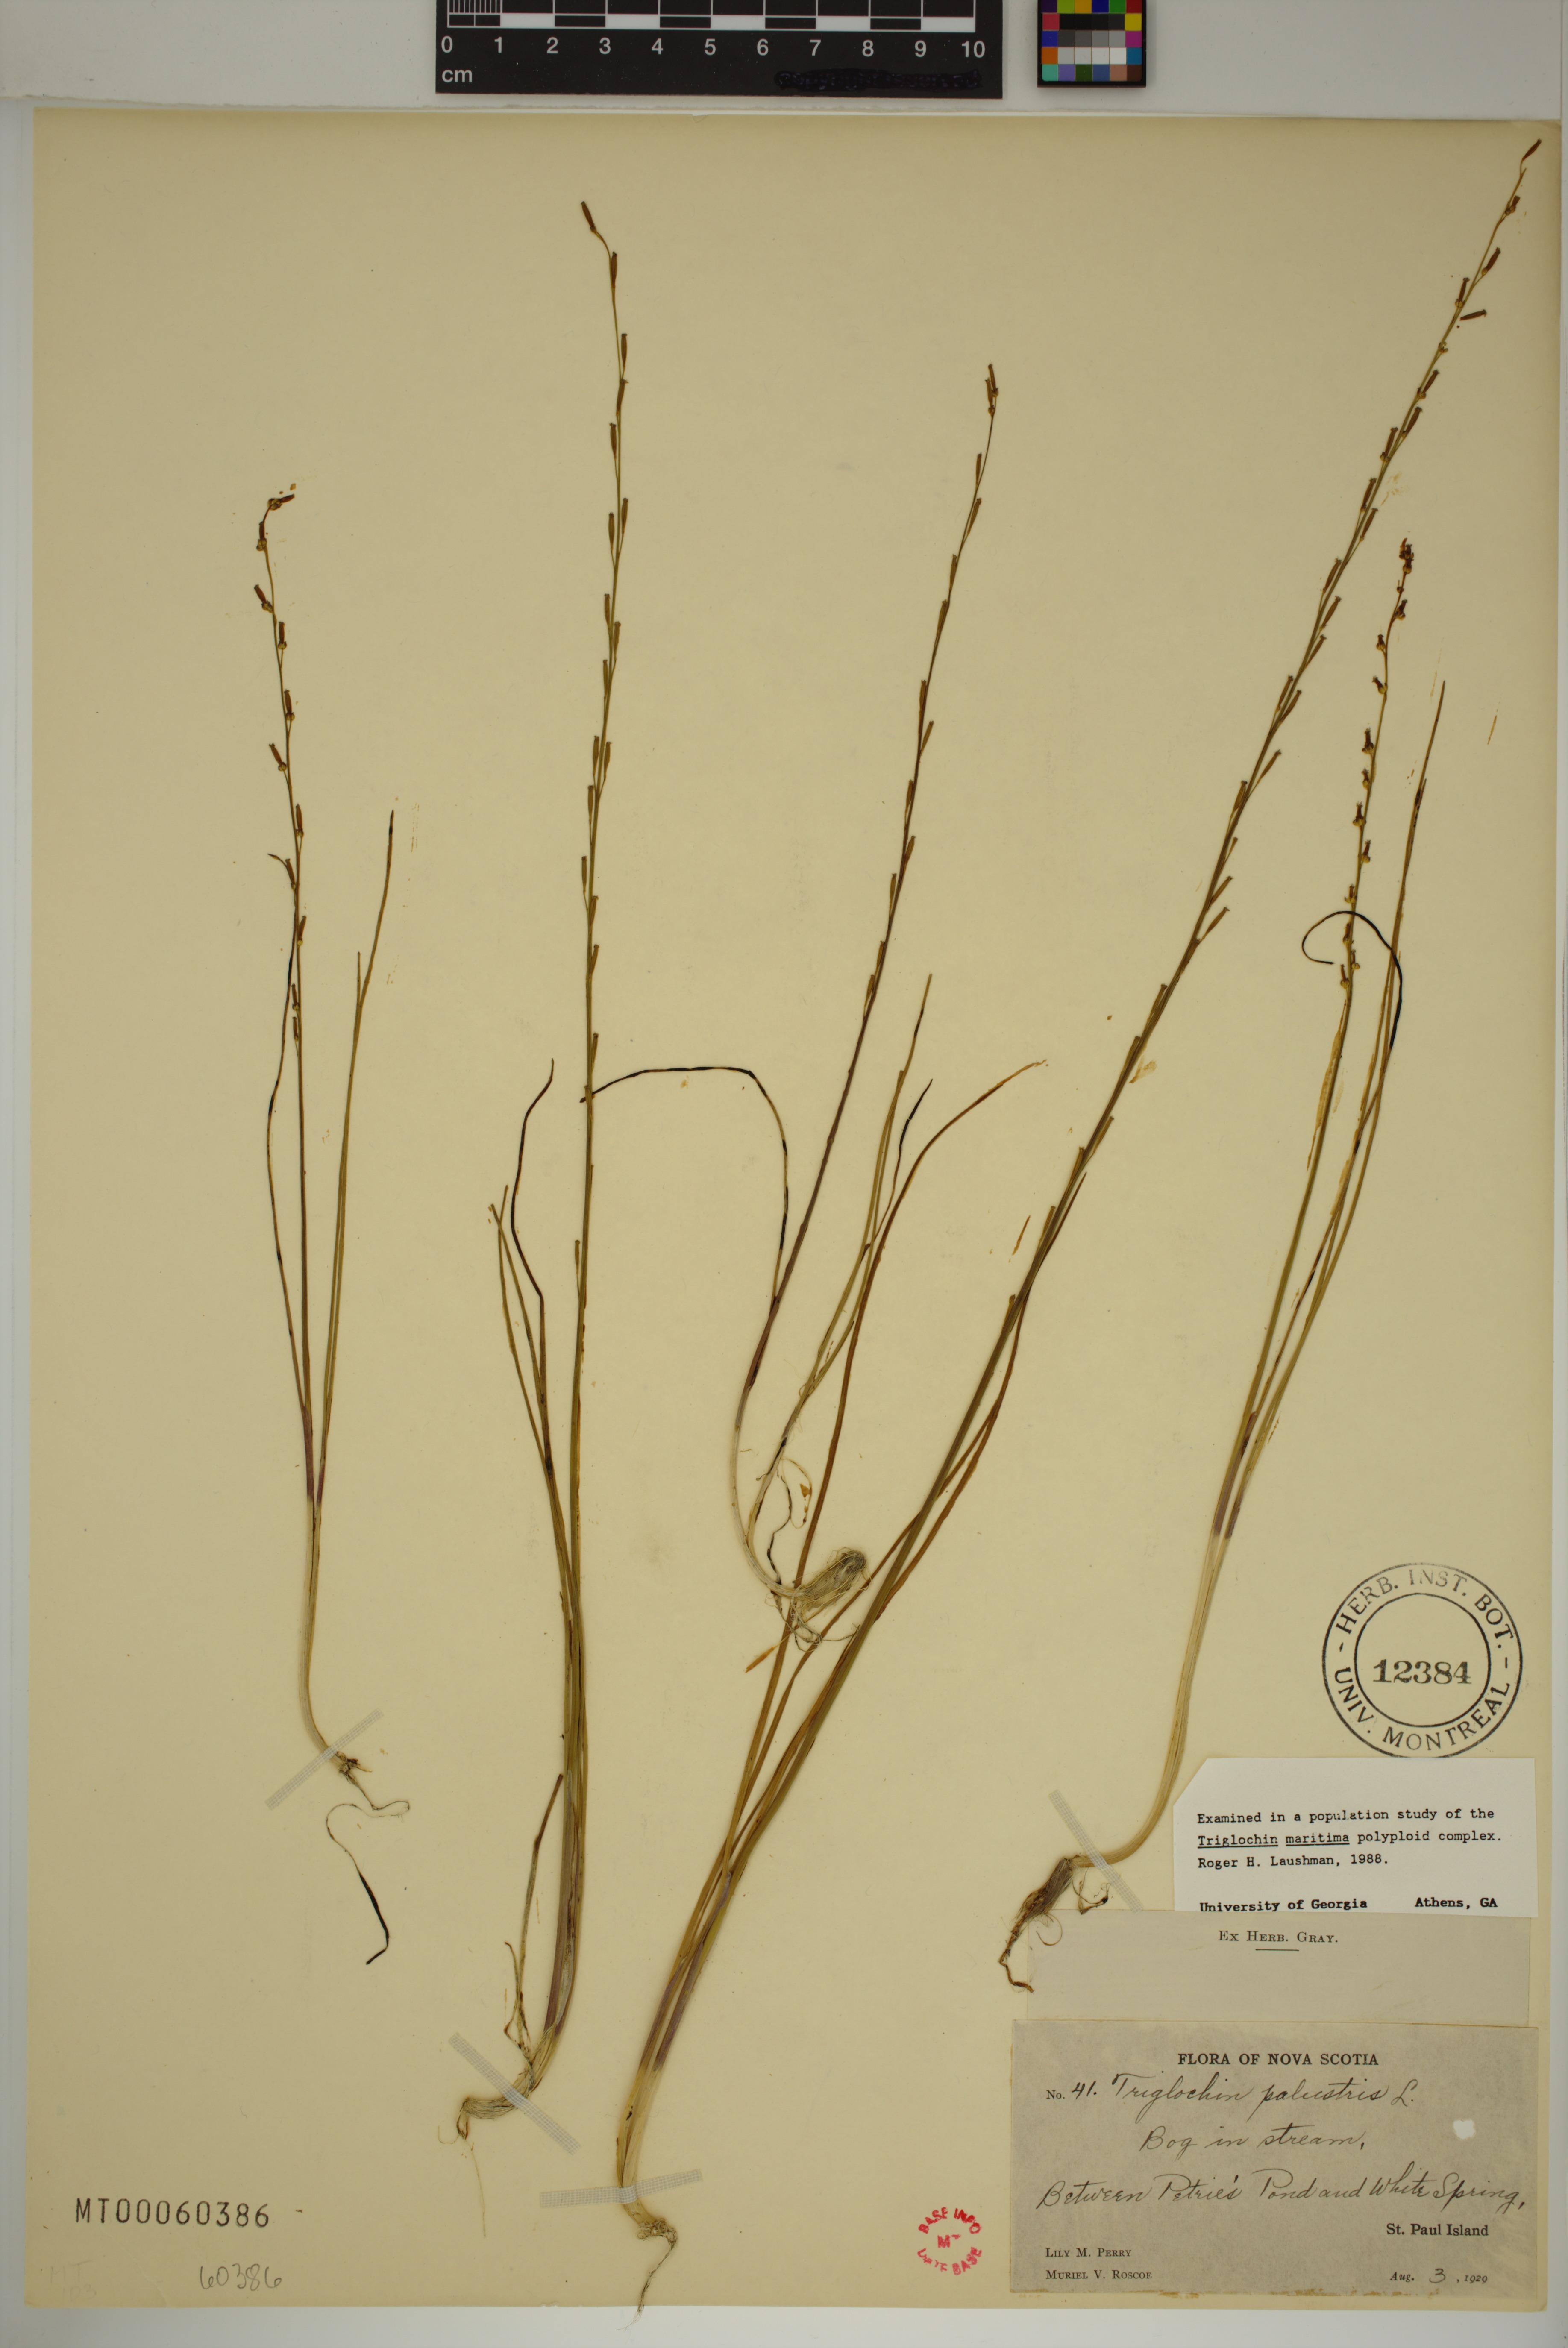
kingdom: Plantae
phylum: Tracheophyta
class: Liliopsida
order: Alismatales
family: Juncaginaceae
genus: Triglochin
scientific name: Triglochin palustris
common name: Marsh arrowgrass
